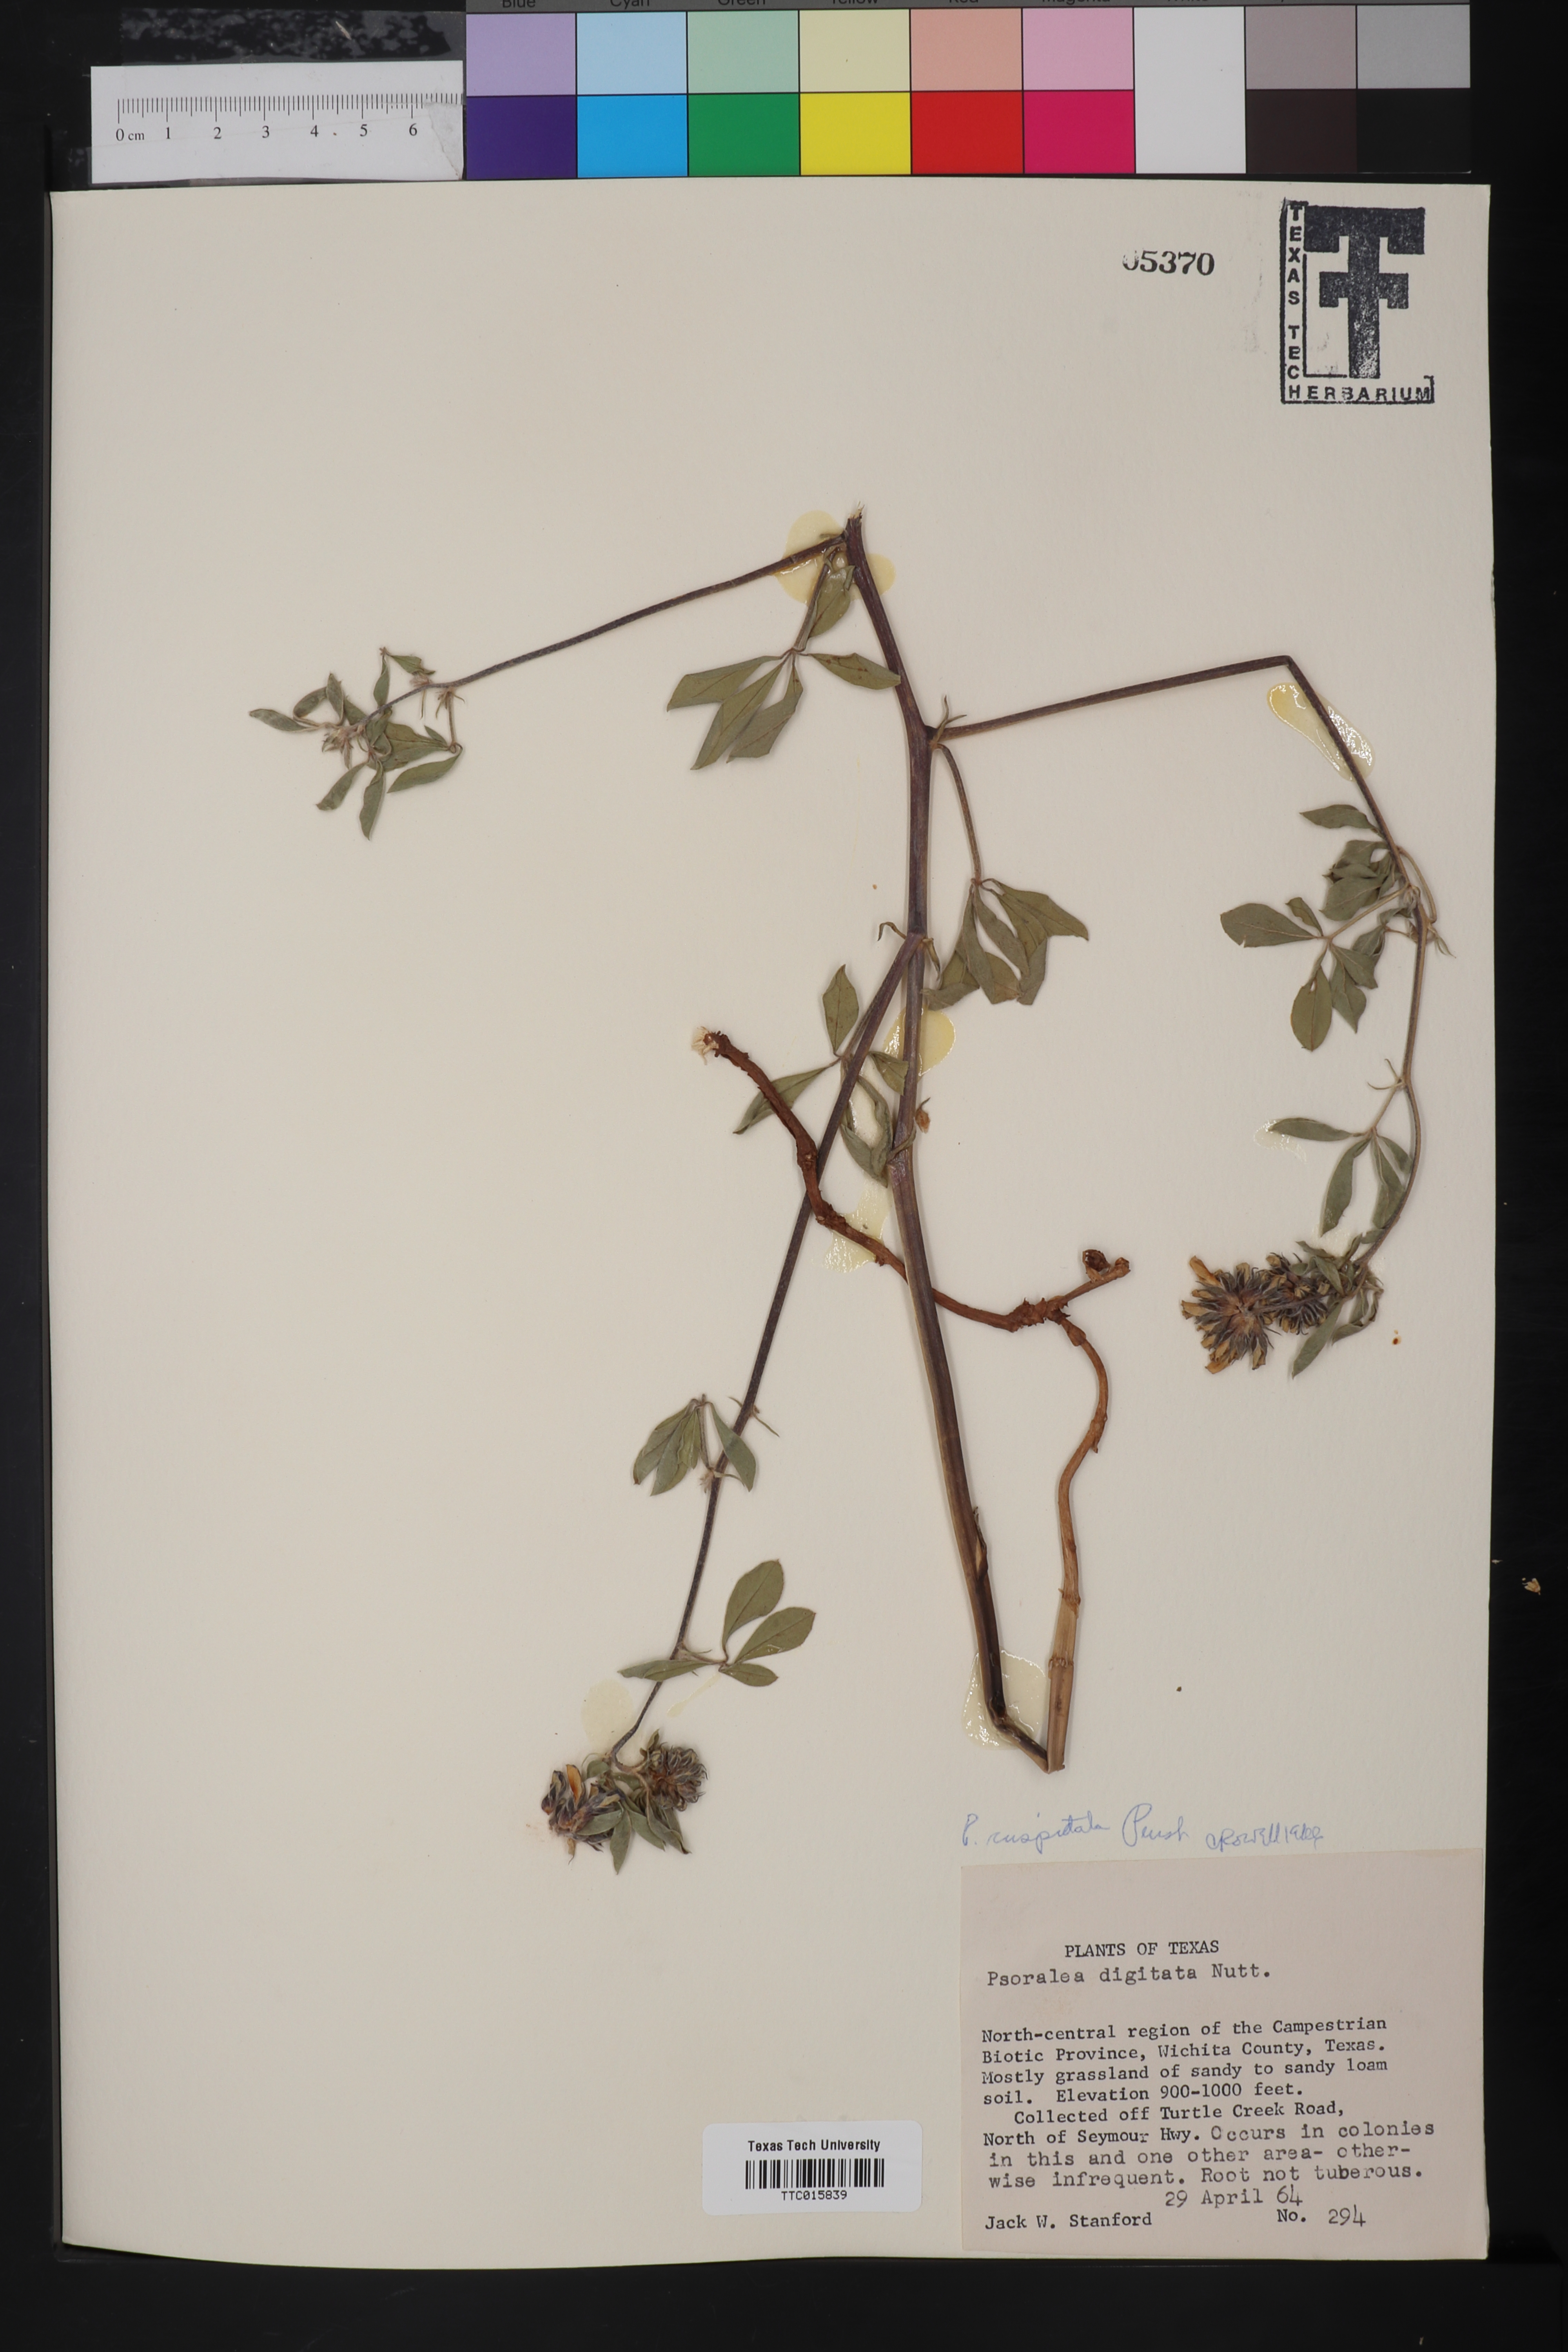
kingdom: Plantae
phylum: Tracheophyta
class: Magnoliopsida
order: Fabales
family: Fabaceae
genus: Pediomelum
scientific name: Pediomelum cuspidatum
